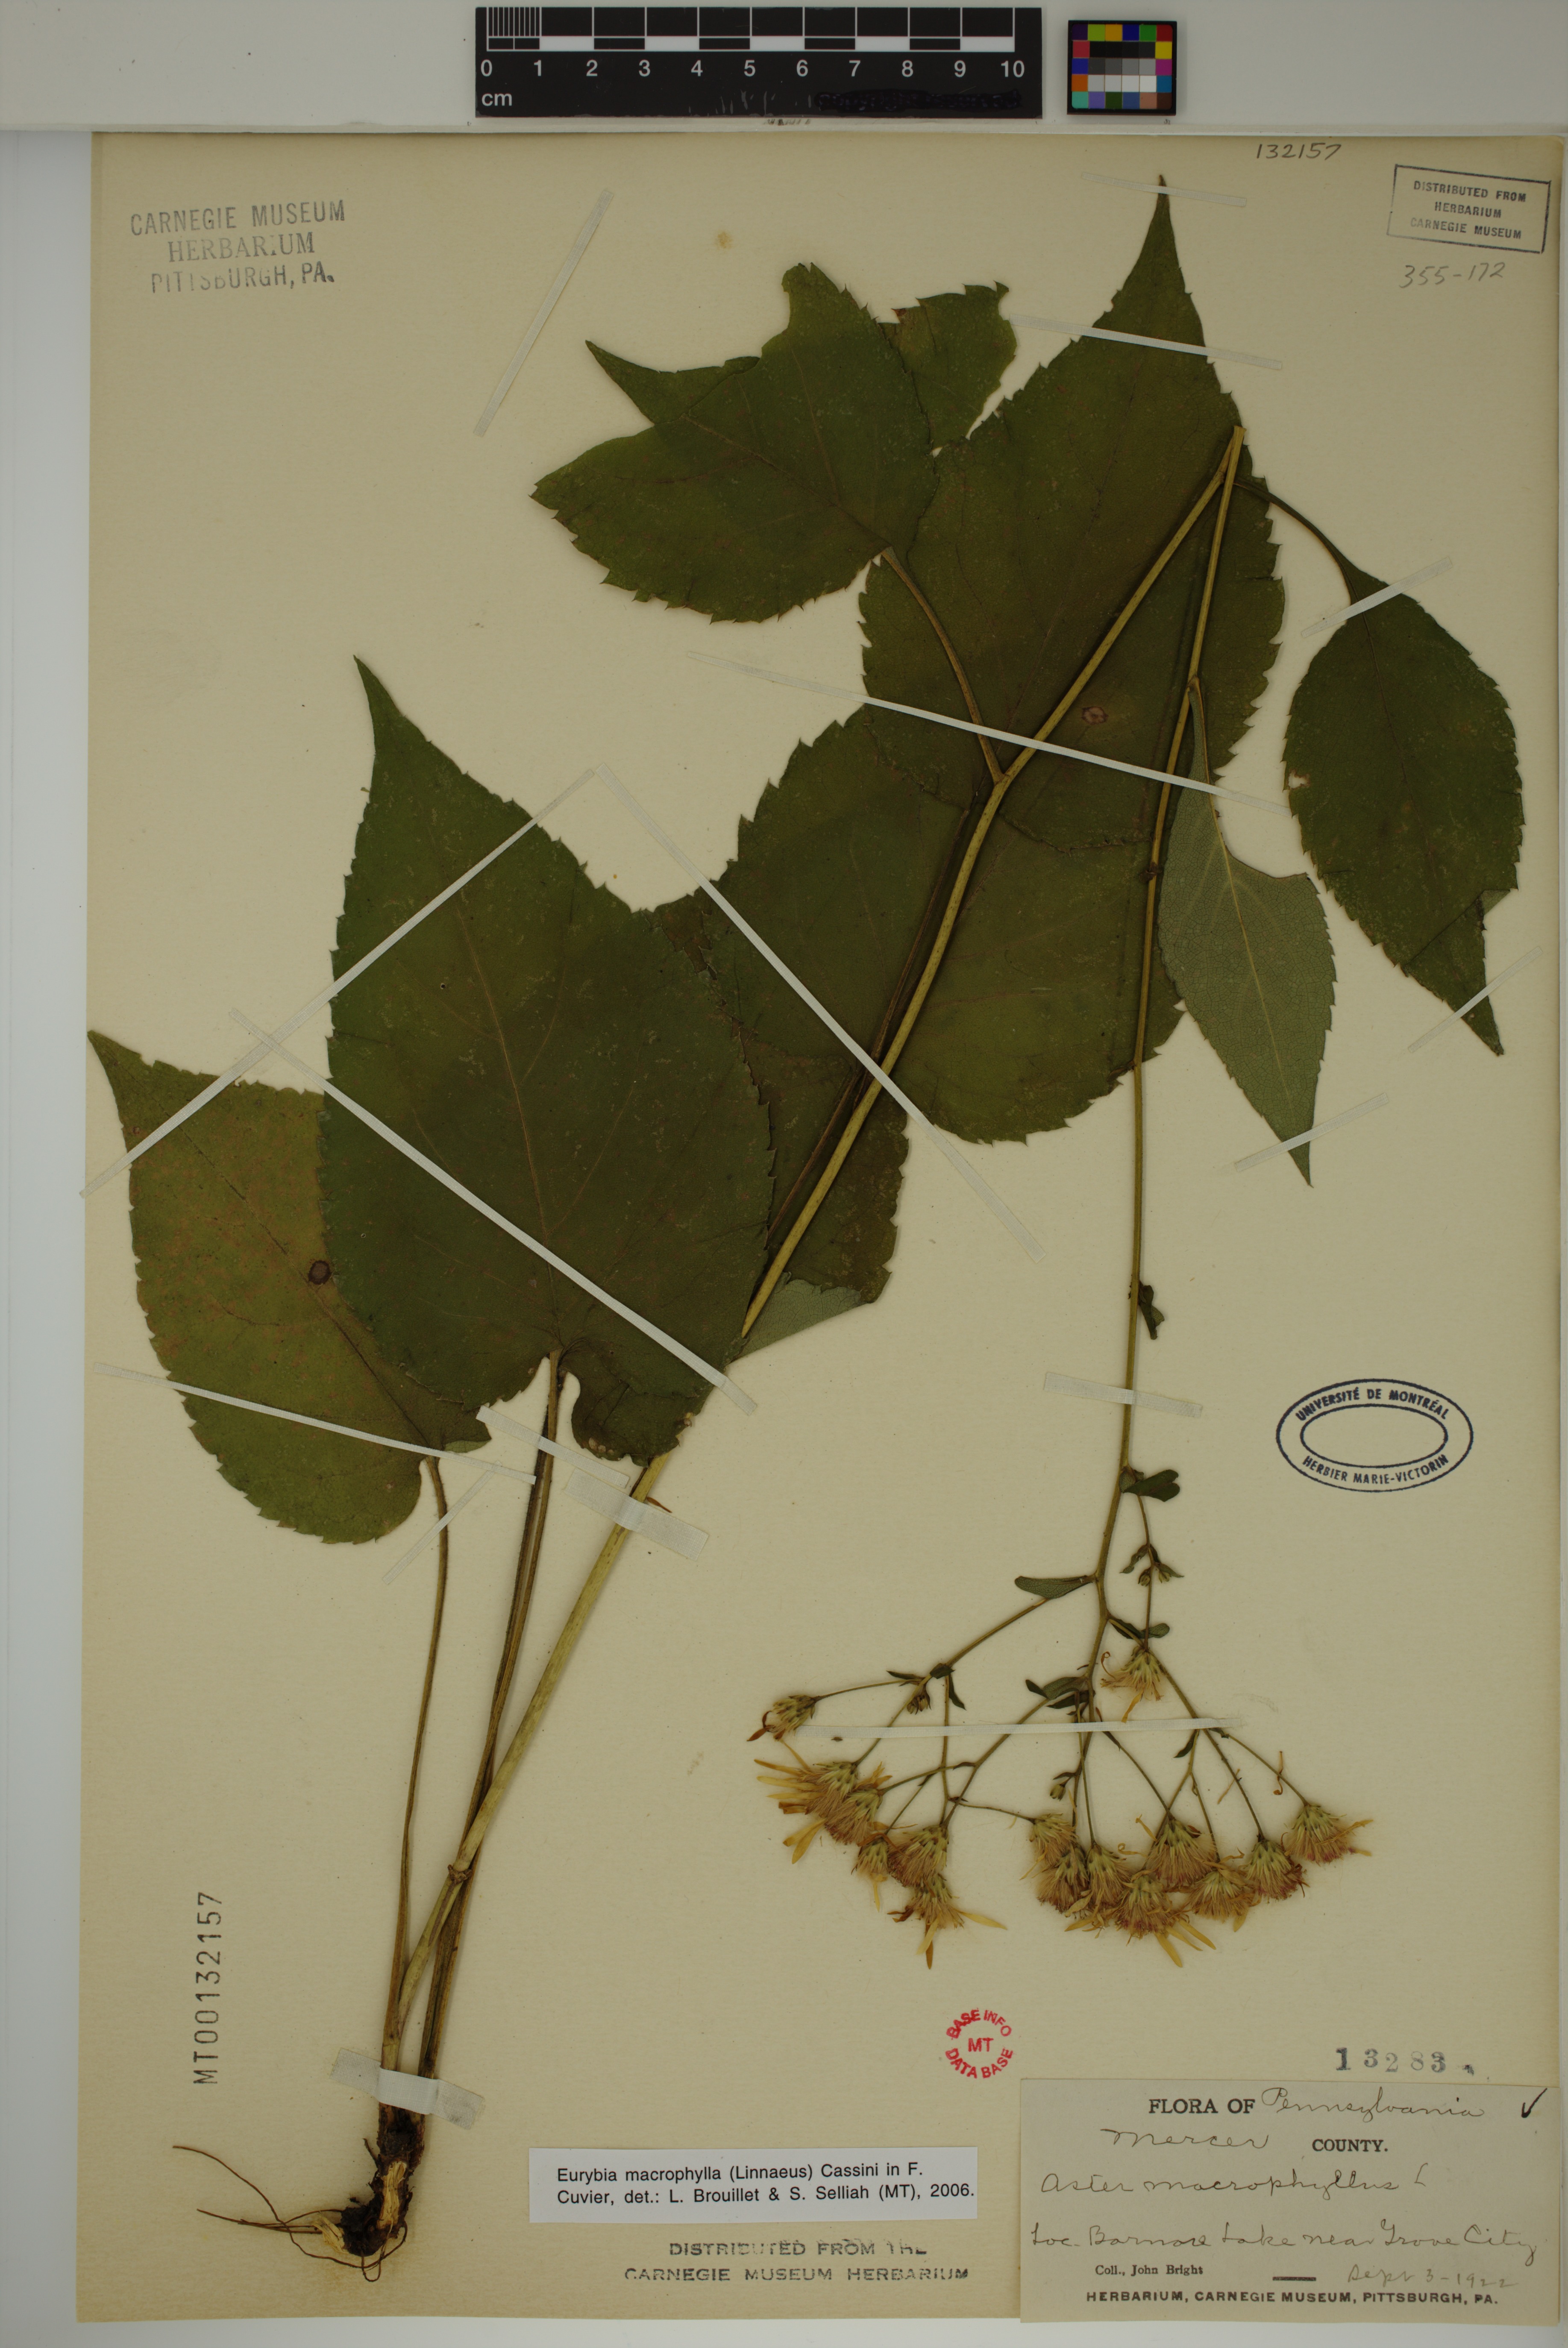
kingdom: Plantae
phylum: Tracheophyta
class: Magnoliopsida
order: Asterales
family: Asteraceae
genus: Eurybia
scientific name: Eurybia macrophylla
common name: Big-leaved aster
